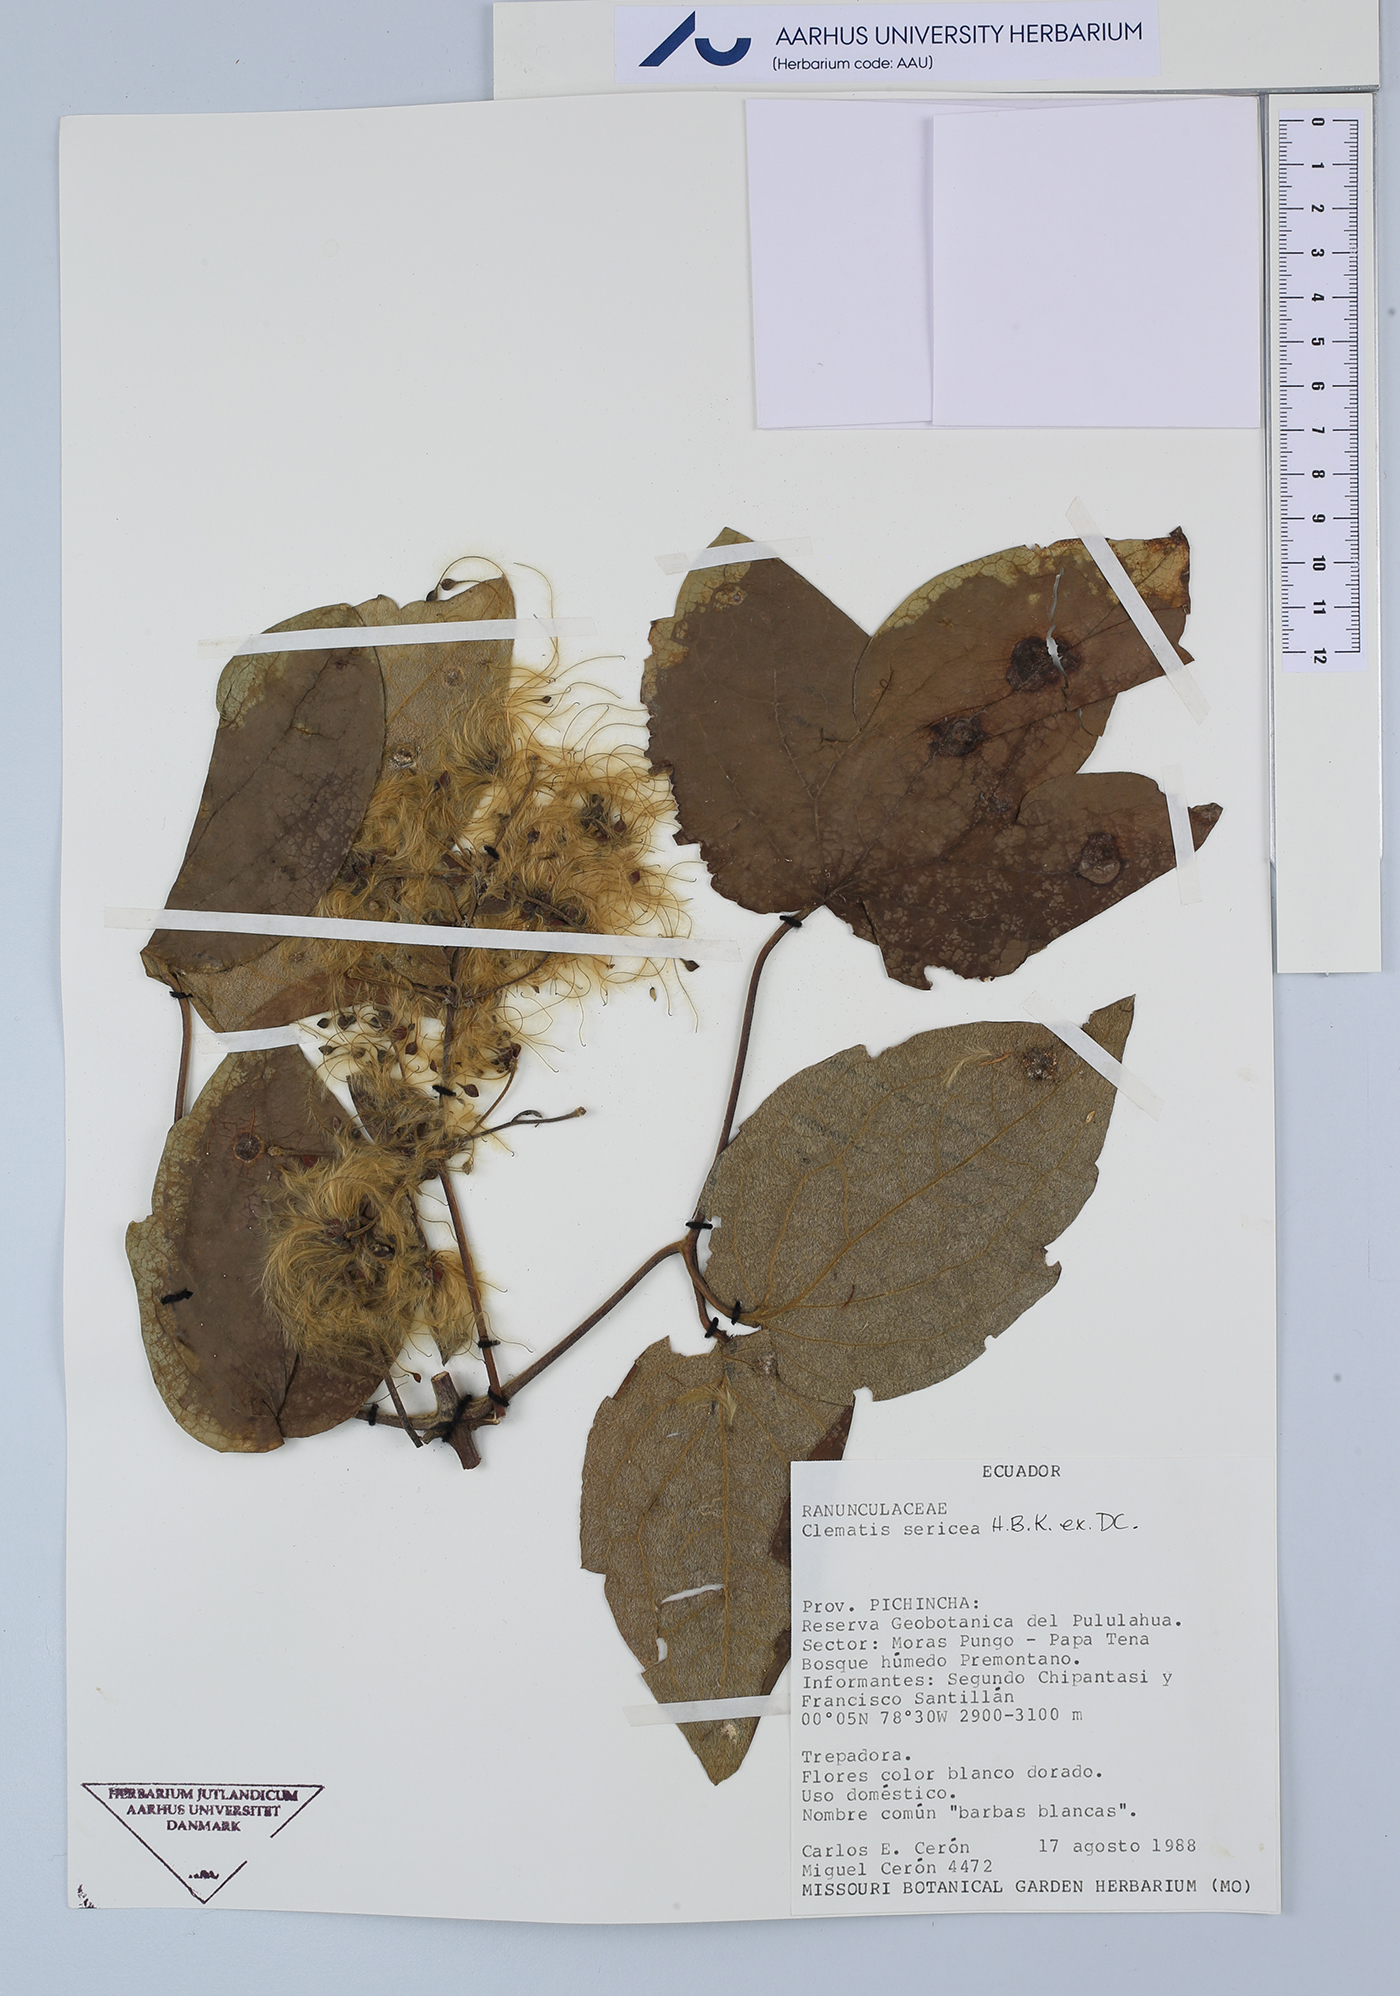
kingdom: Plantae
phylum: Tracheophyta
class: Magnoliopsida
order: Ranunculales
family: Ranunculaceae
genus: Clematis
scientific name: Clematis haenkeana
